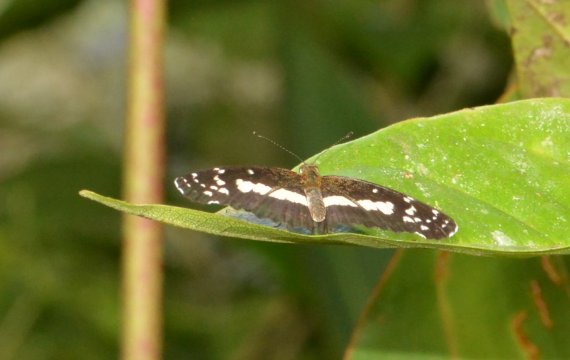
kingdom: Animalia
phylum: Arthropoda
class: Insecta
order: Lepidoptera
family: Nymphalidae
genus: Castilia
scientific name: Castilia myia
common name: Mayan Crescent
